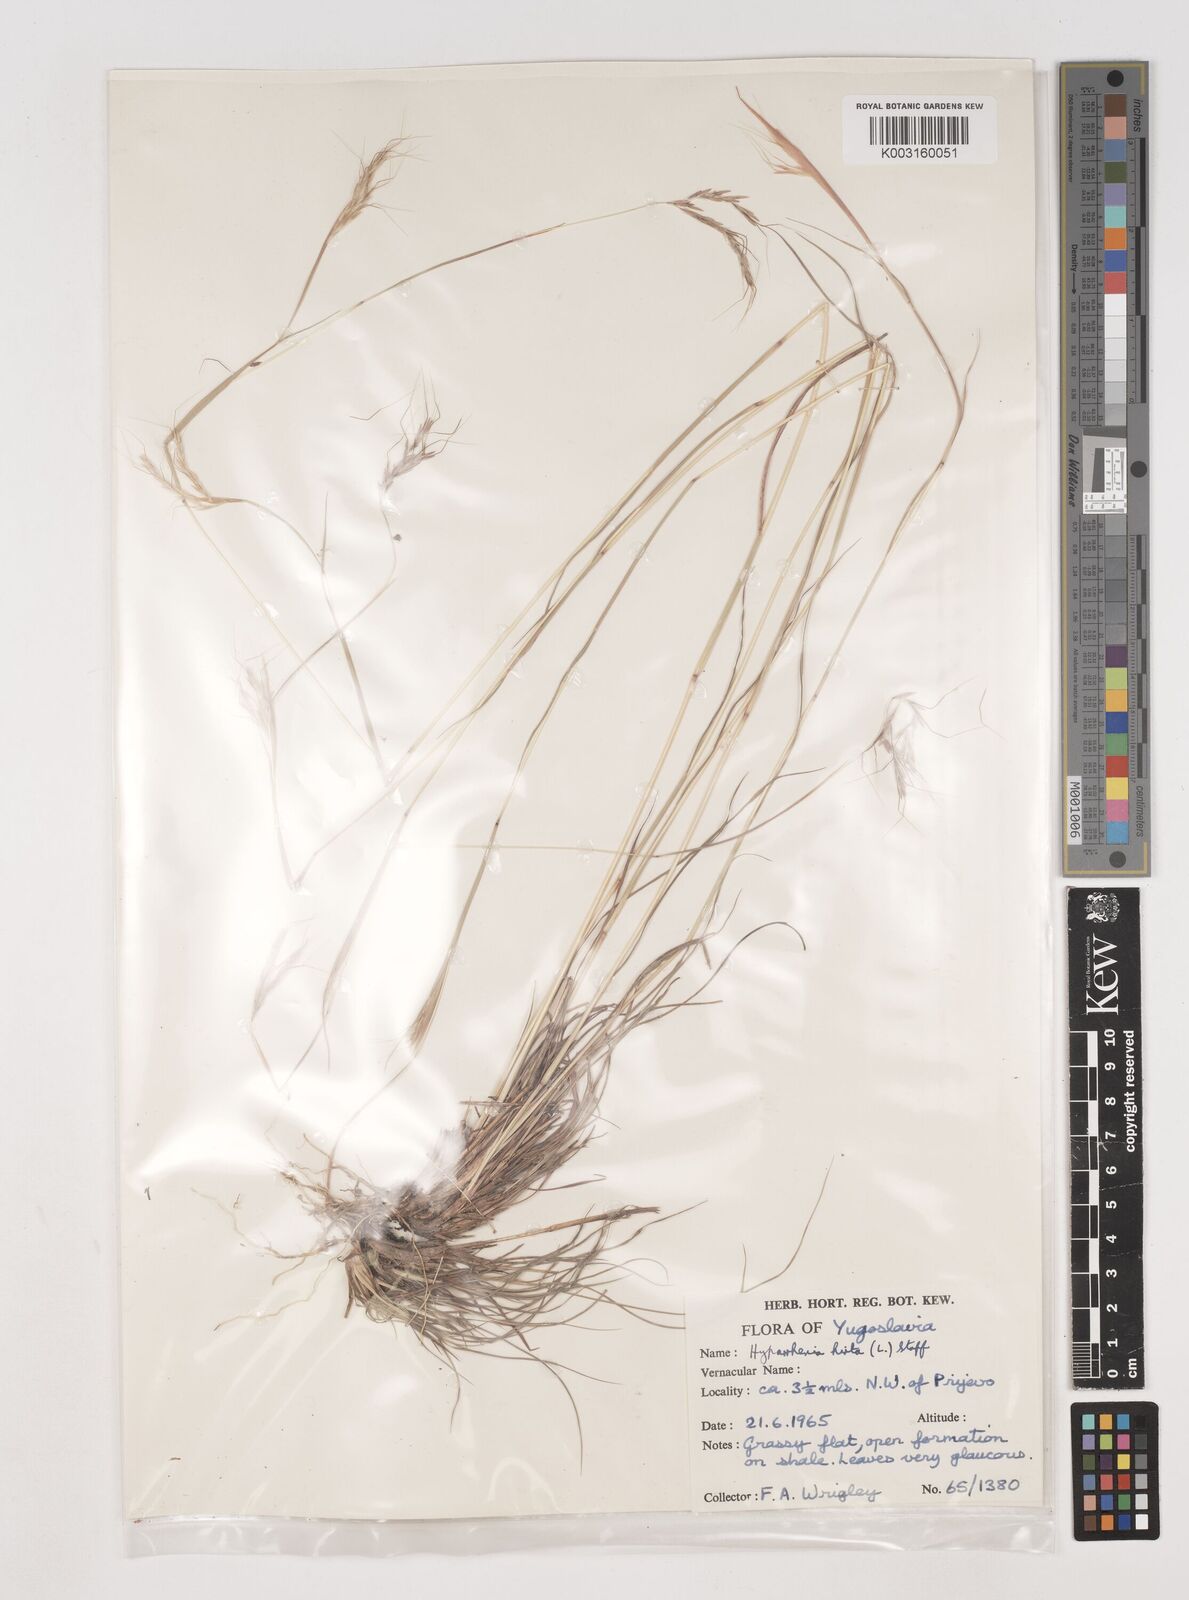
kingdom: Plantae
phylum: Tracheophyta
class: Liliopsida
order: Poales
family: Poaceae
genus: Hyparrhenia
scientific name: Hyparrhenia hirta
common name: Thatching grass
